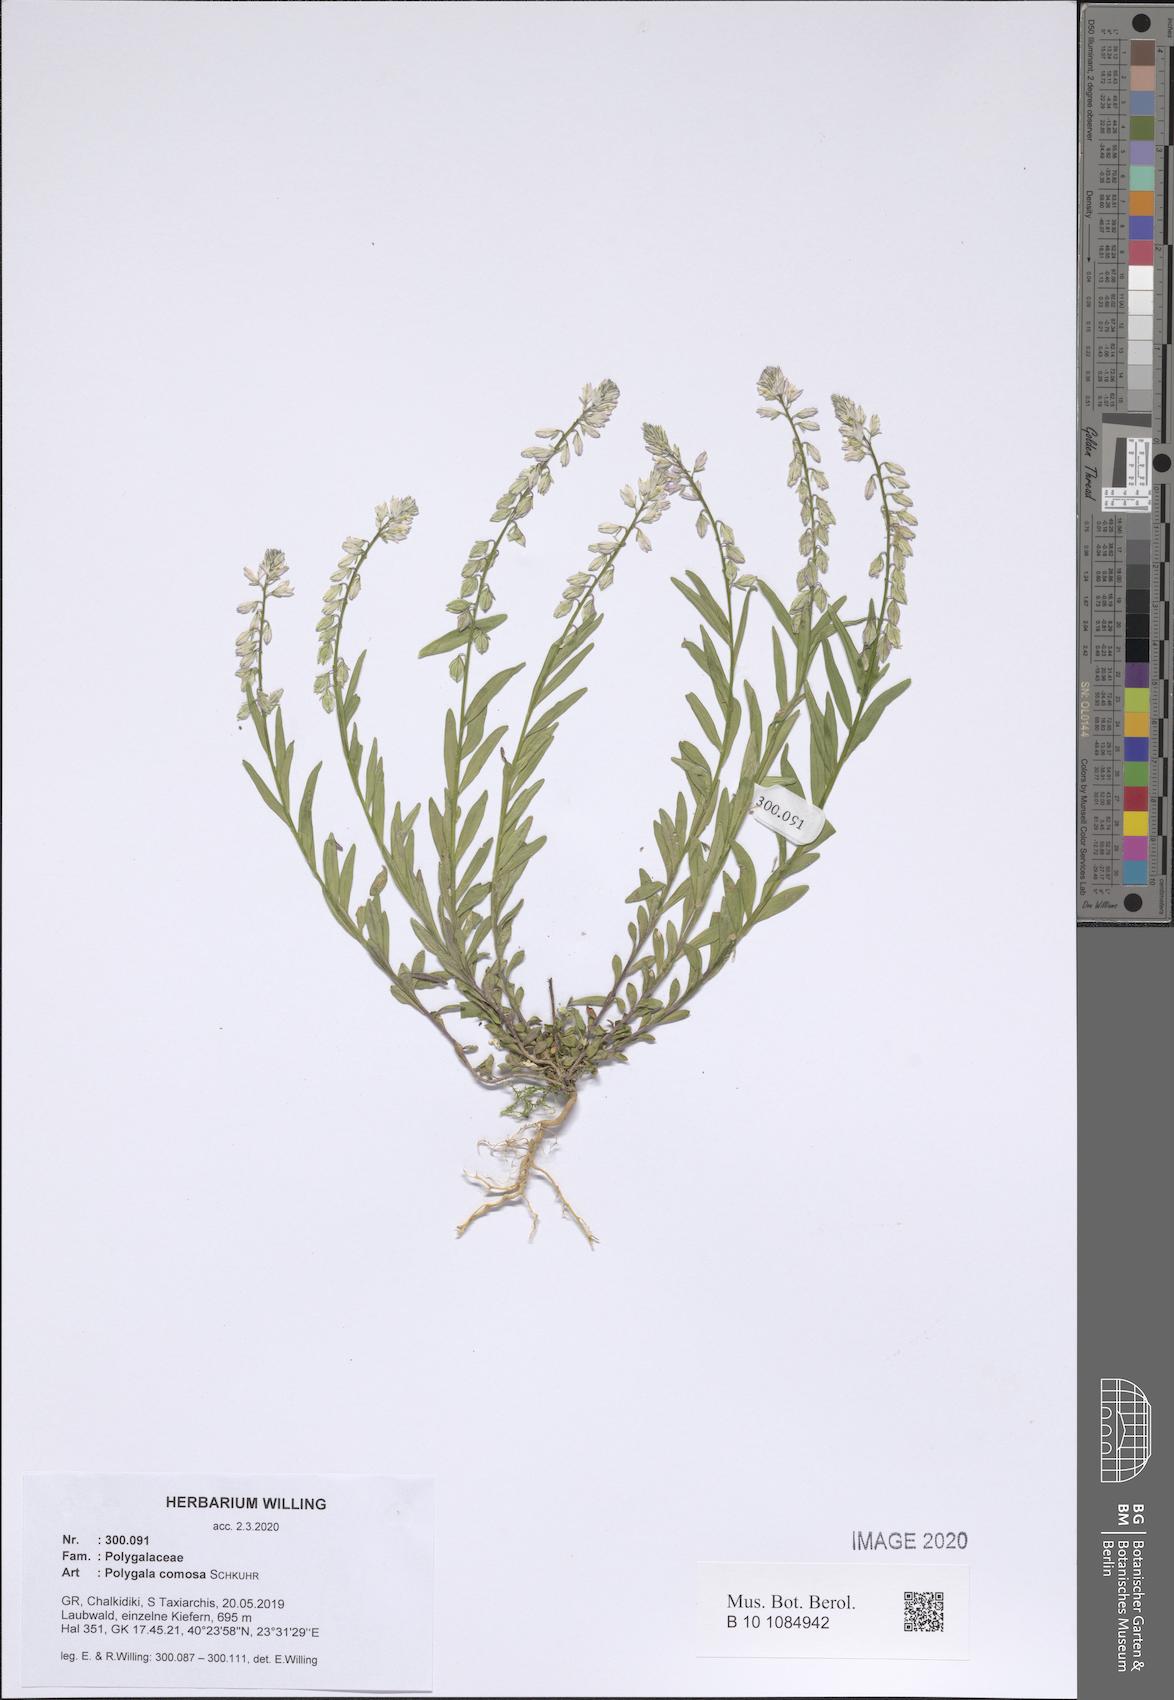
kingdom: Plantae
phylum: Tracheophyta
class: Magnoliopsida
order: Fabales
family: Polygalaceae
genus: Polygala
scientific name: Polygala comosa
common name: Tufted milkwort
